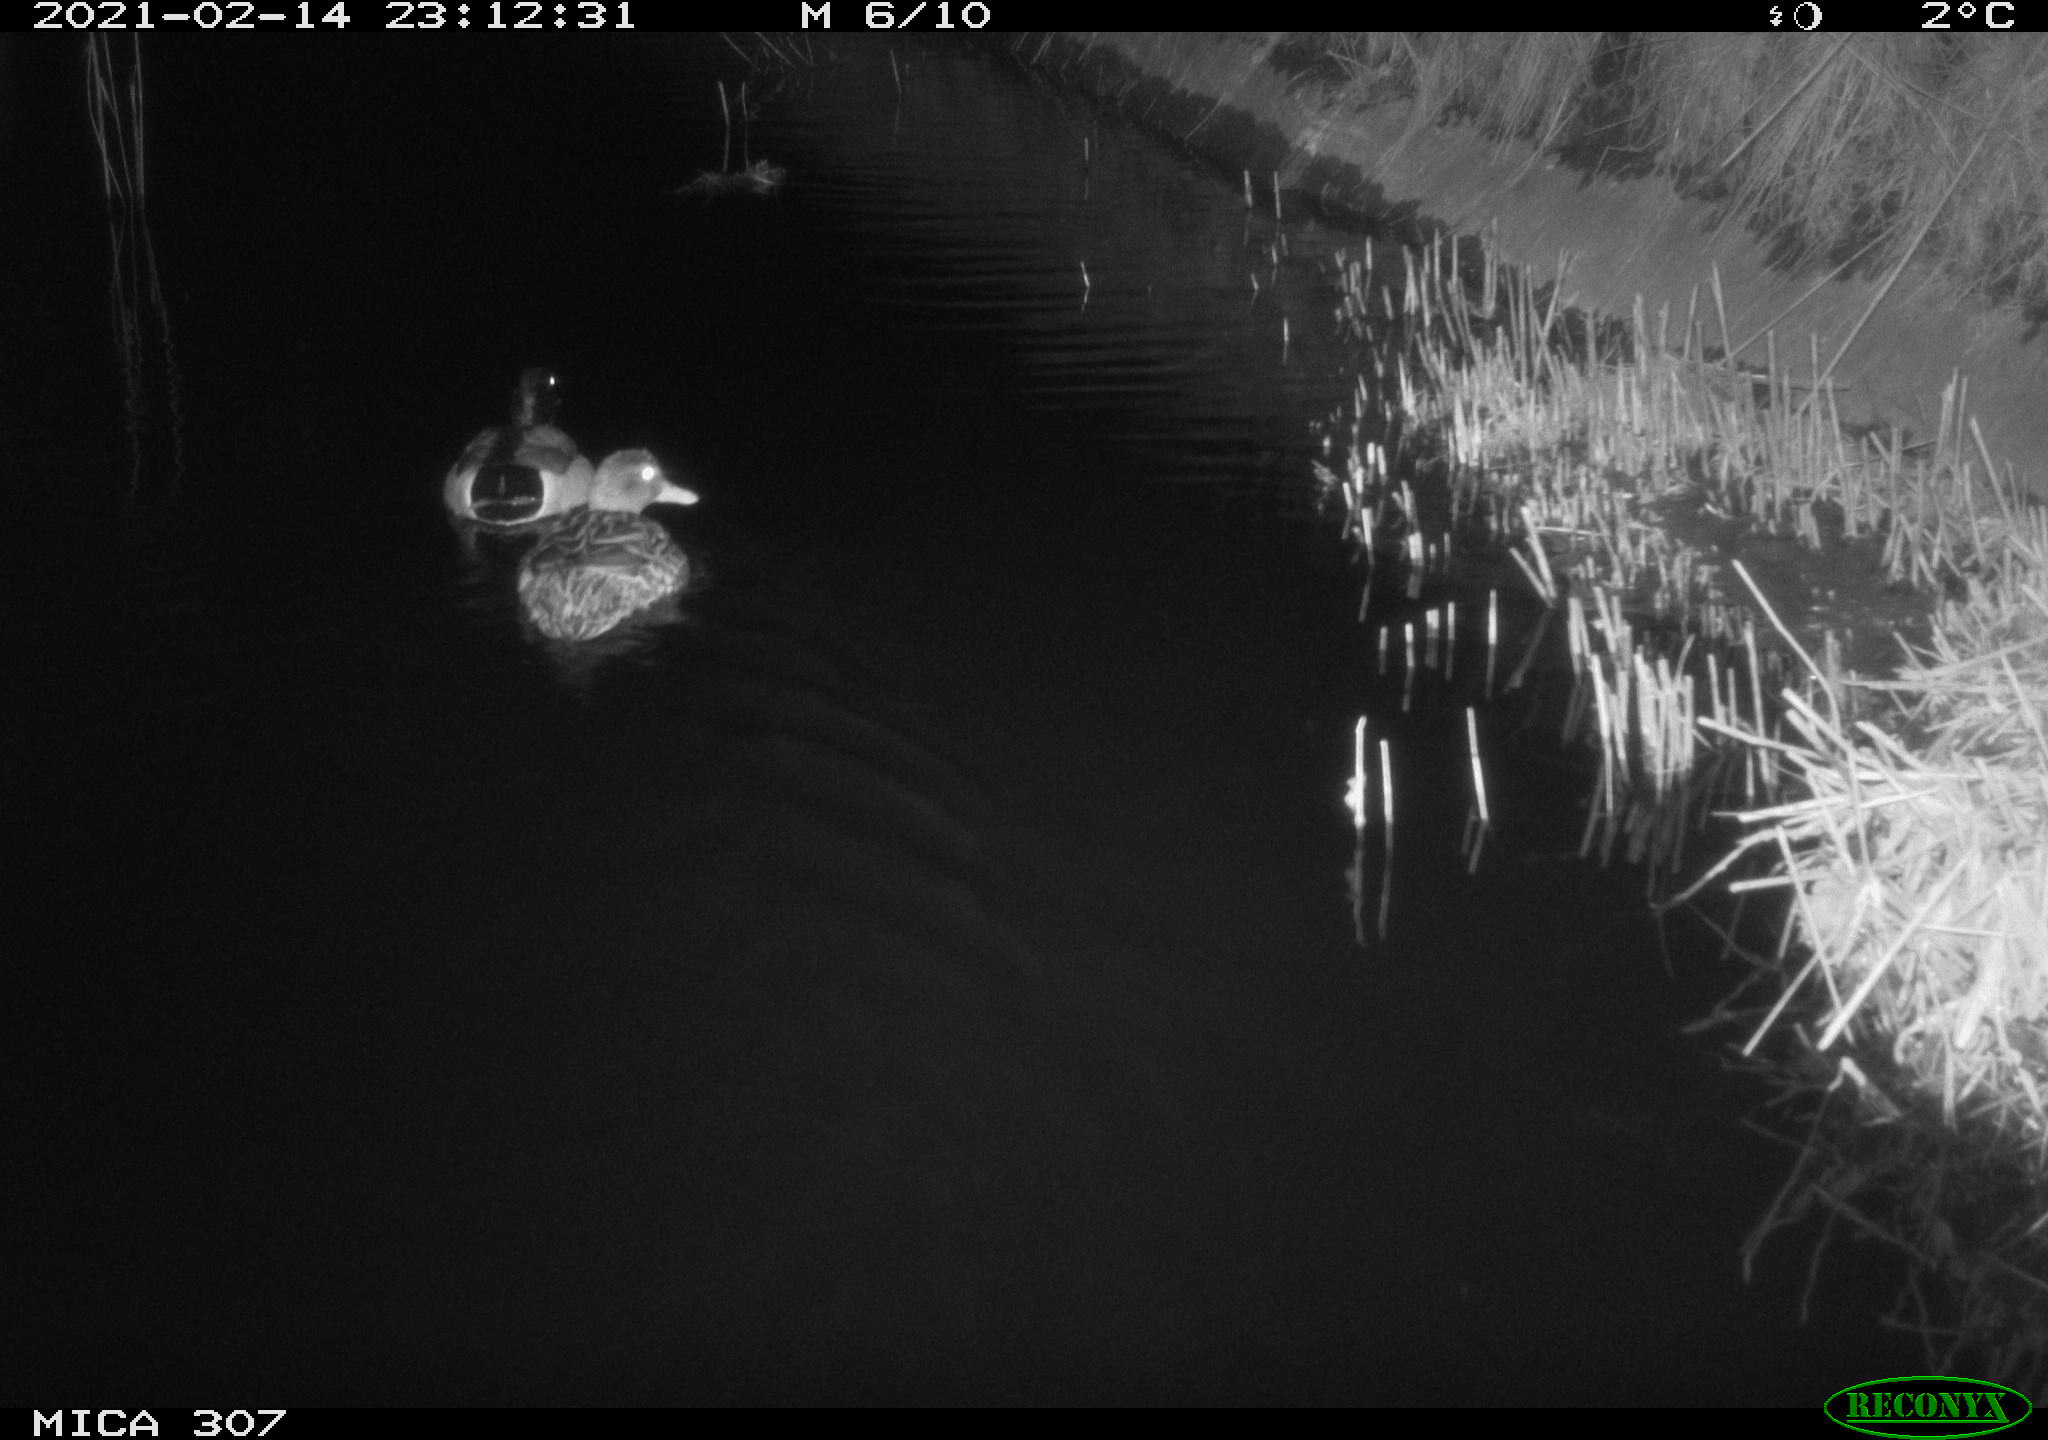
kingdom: Animalia
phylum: Chordata
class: Aves
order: Anseriformes
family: Anatidae
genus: Anas
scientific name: Anas platyrhynchos
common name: Mallard
